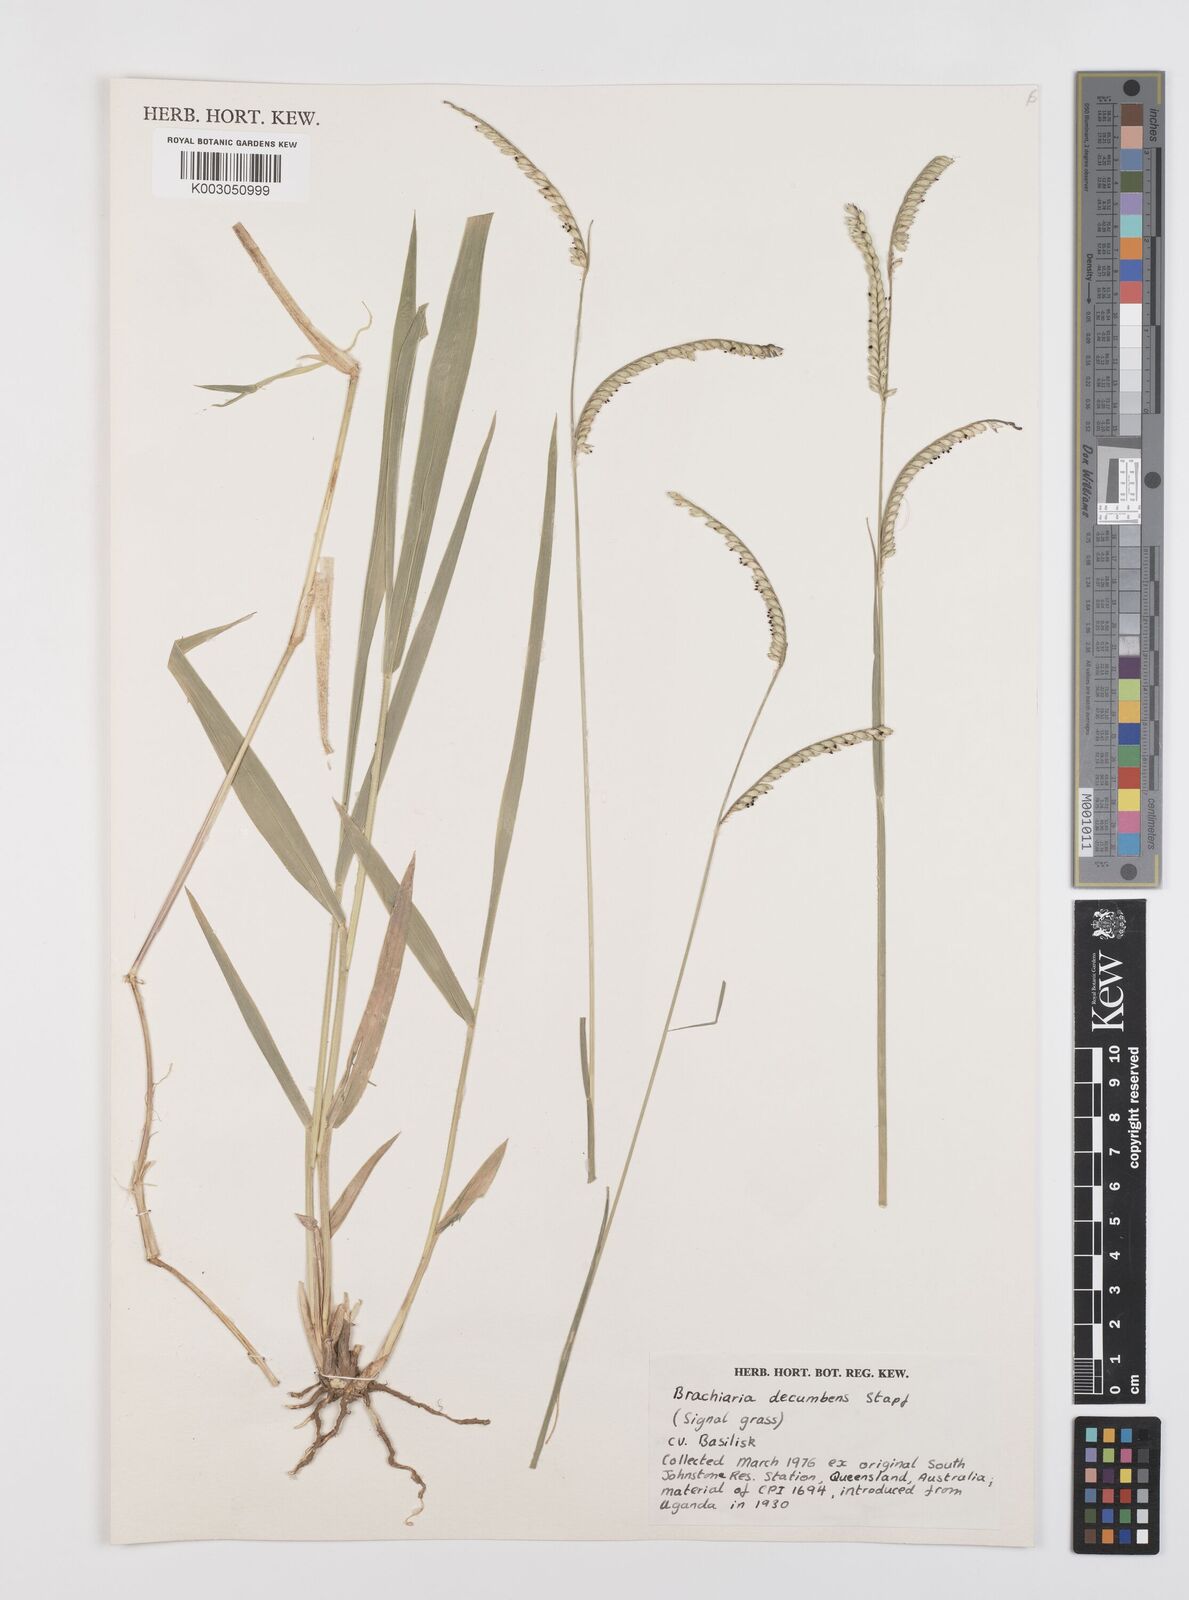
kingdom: Plantae
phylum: Tracheophyta
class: Liliopsida
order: Poales
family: Poaceae
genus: Urochloa
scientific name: Urochloa brizantha
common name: Palisade signalgrass
